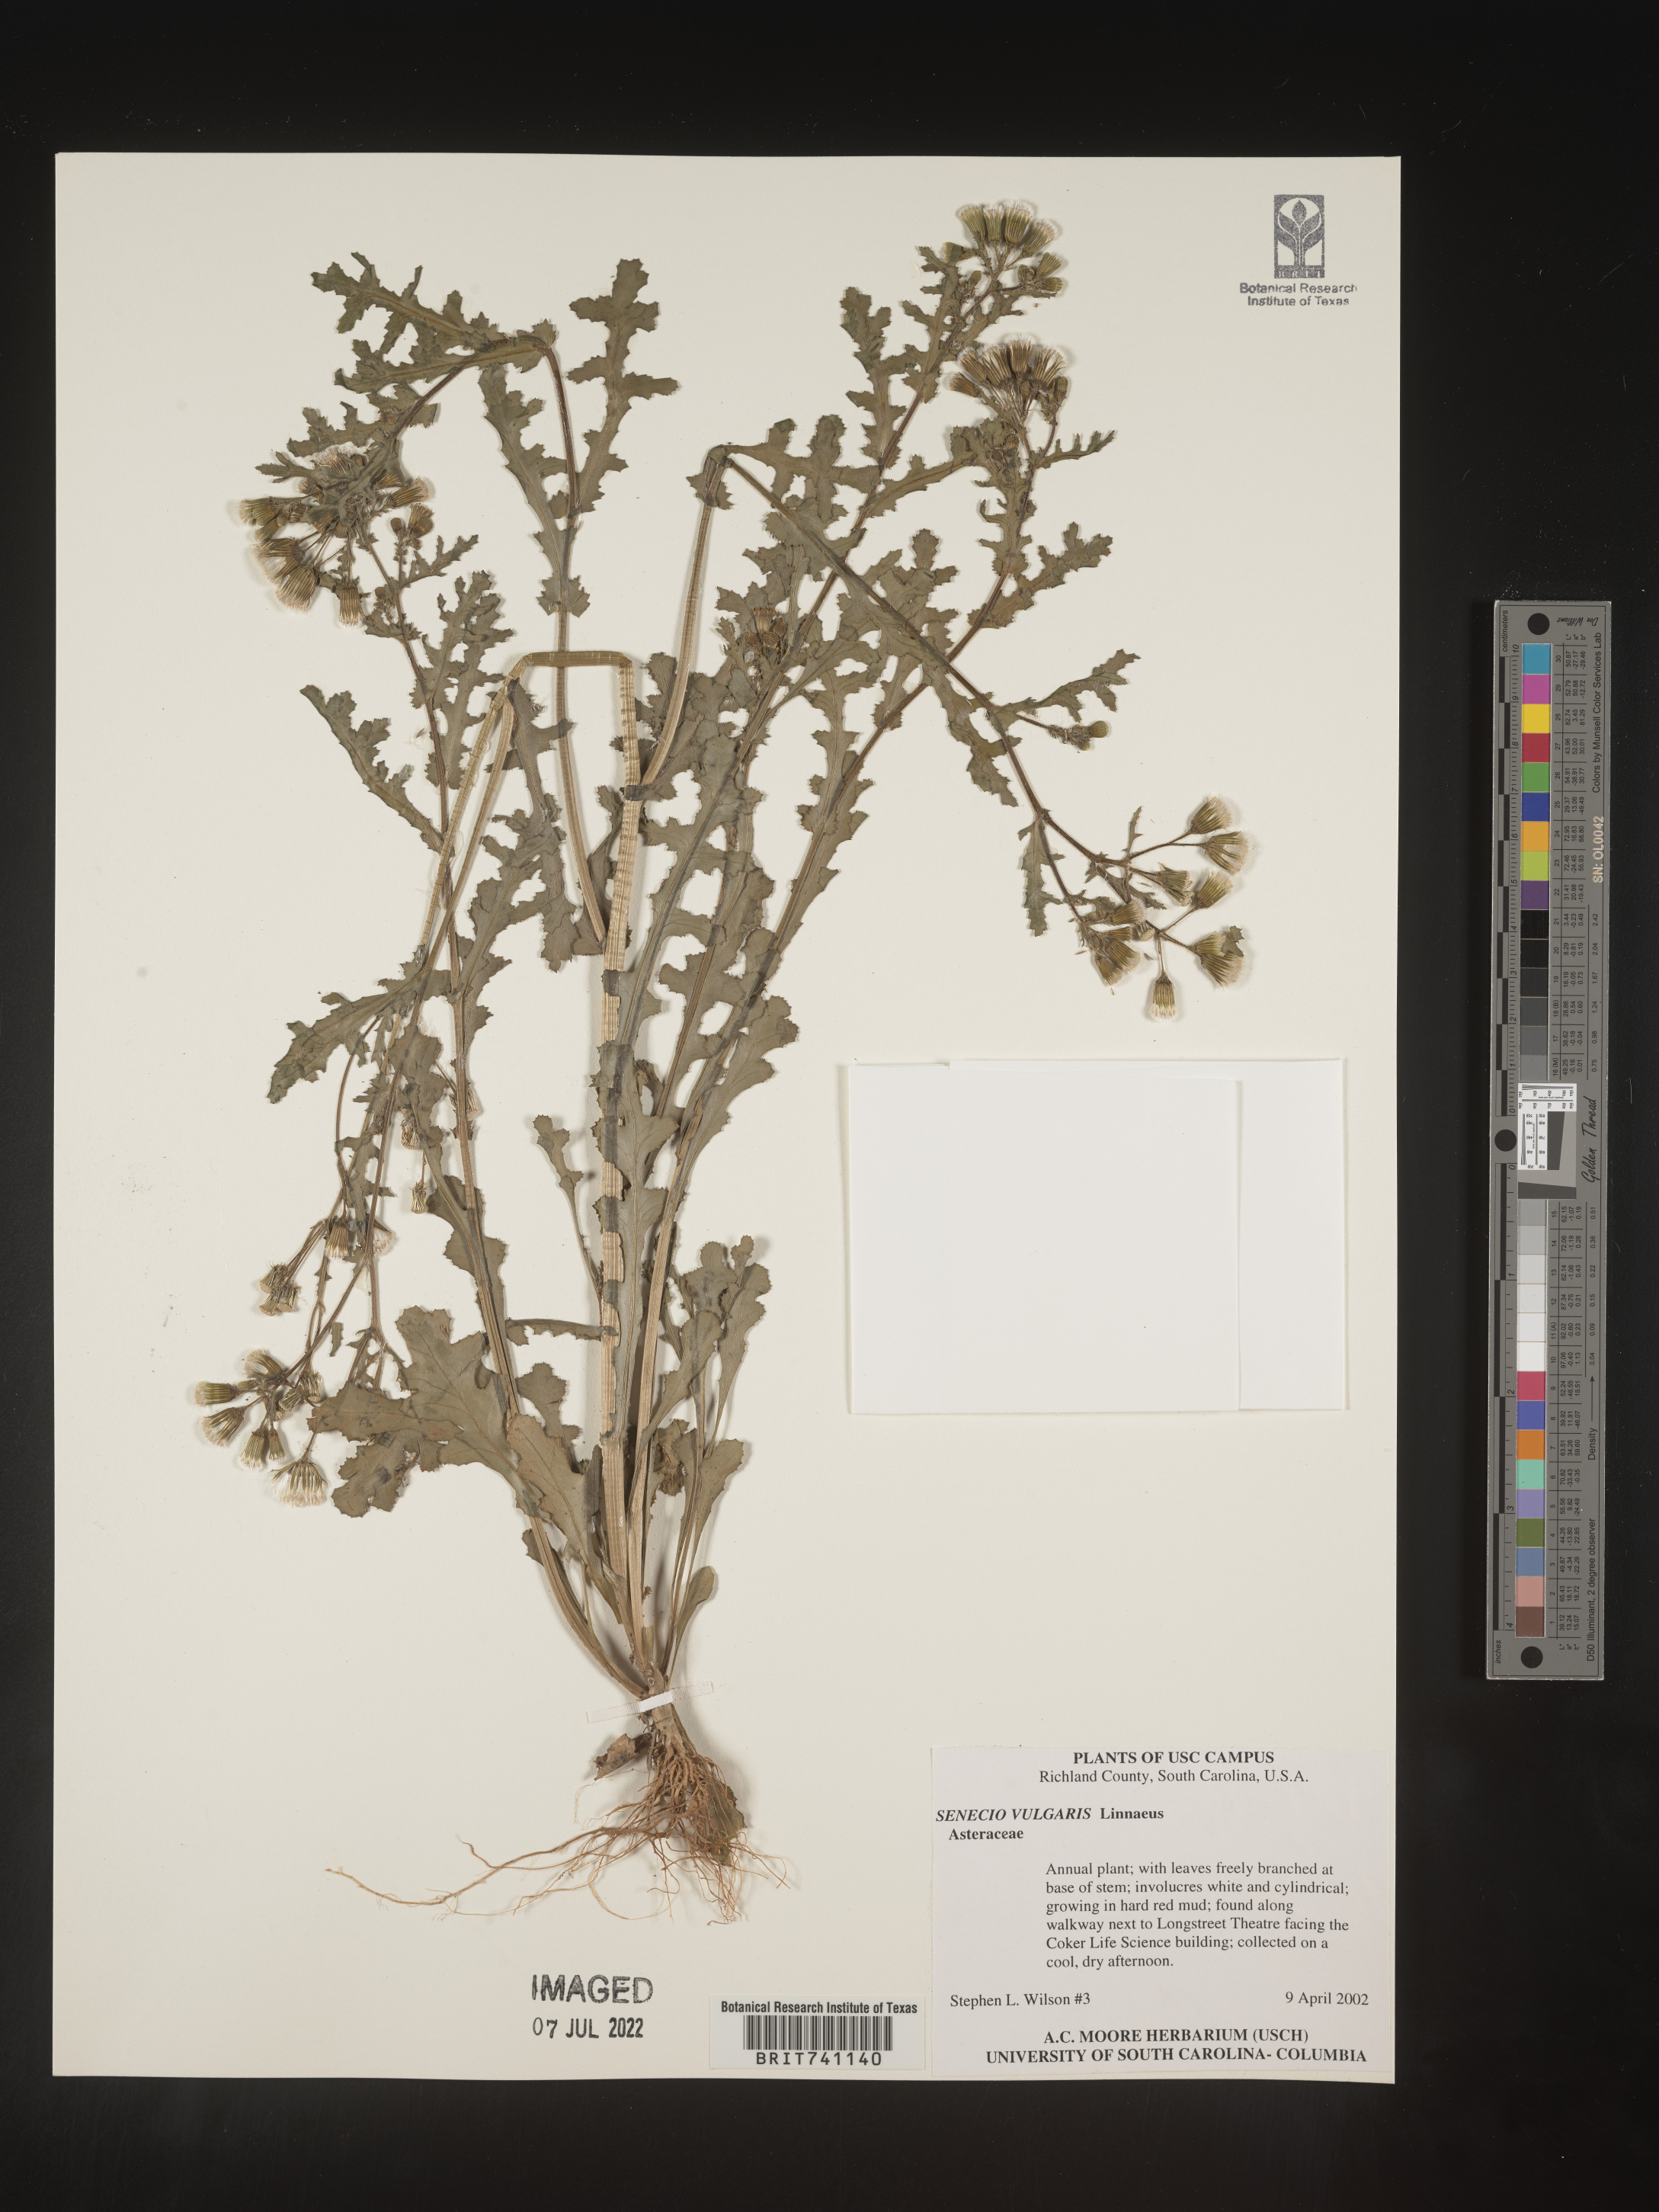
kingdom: Plantae
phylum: Tracheophyta
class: Magnoliopsida
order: Asterales
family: Asteraceae
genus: Senecio
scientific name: Senecio vulgaris
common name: Old-man-in-the-spring
